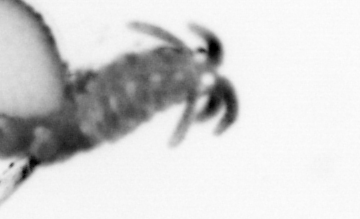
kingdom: Animalia
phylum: Annelida
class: Polychaeta
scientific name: Polychaeta
